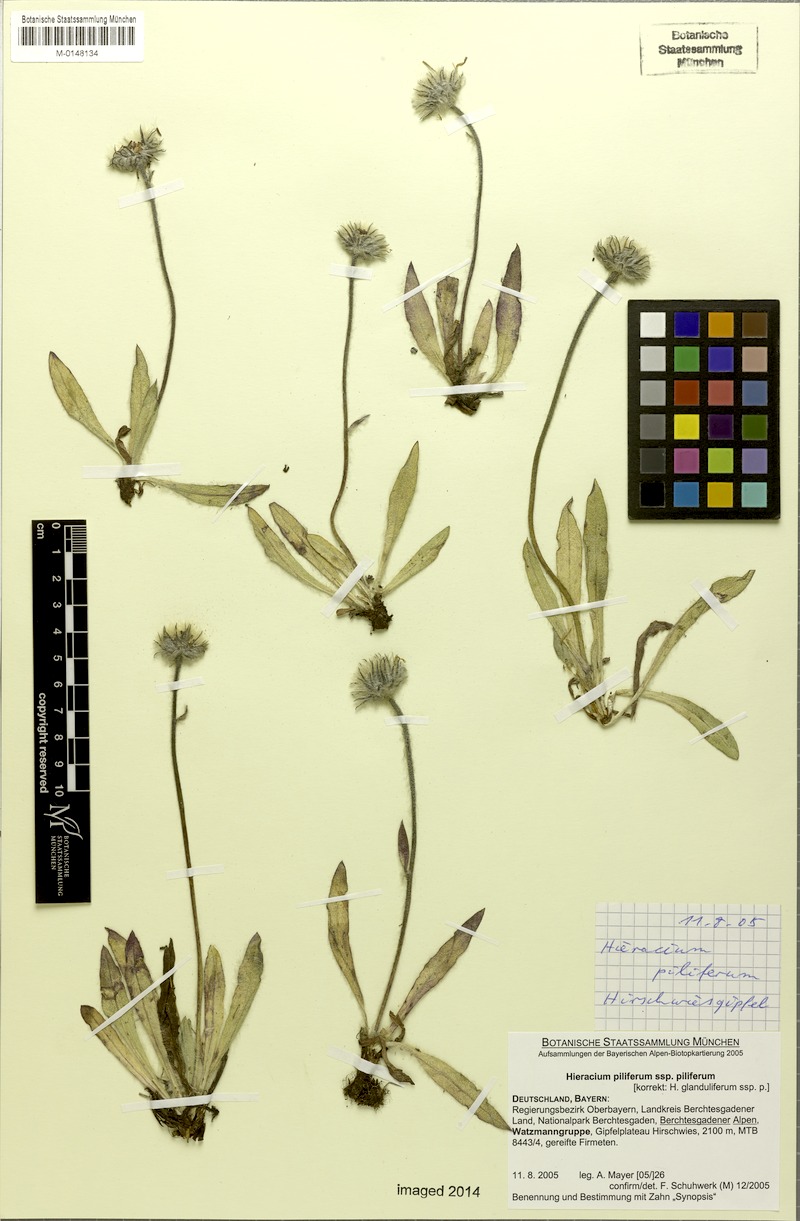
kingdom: Plantae
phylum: Tracheophyta
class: Magnoliopsida
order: Asterales
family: Asteraceae
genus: Hieracium
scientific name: Hieracium piliferum
